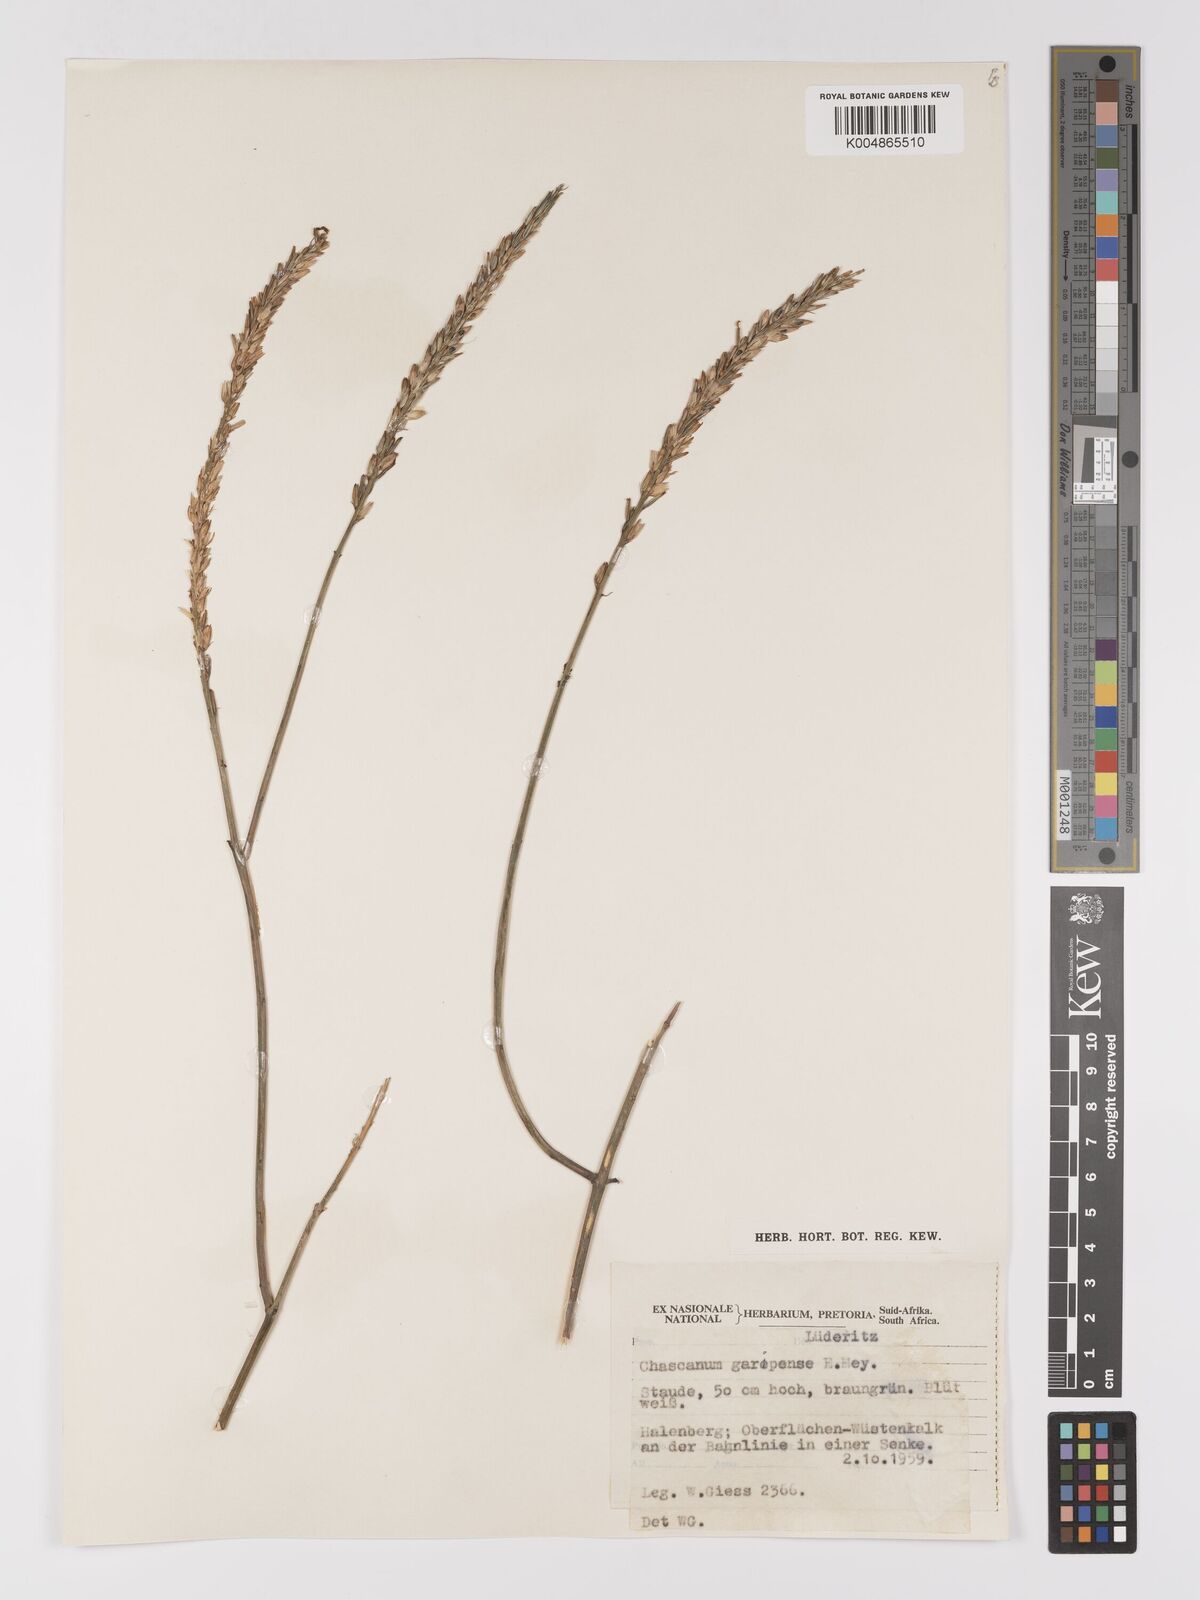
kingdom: Plantae
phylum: Tracheophyta
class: Magnoliopsida
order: Lamiales
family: Verbenaceae
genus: Chascanum
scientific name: Chascanum garipense
